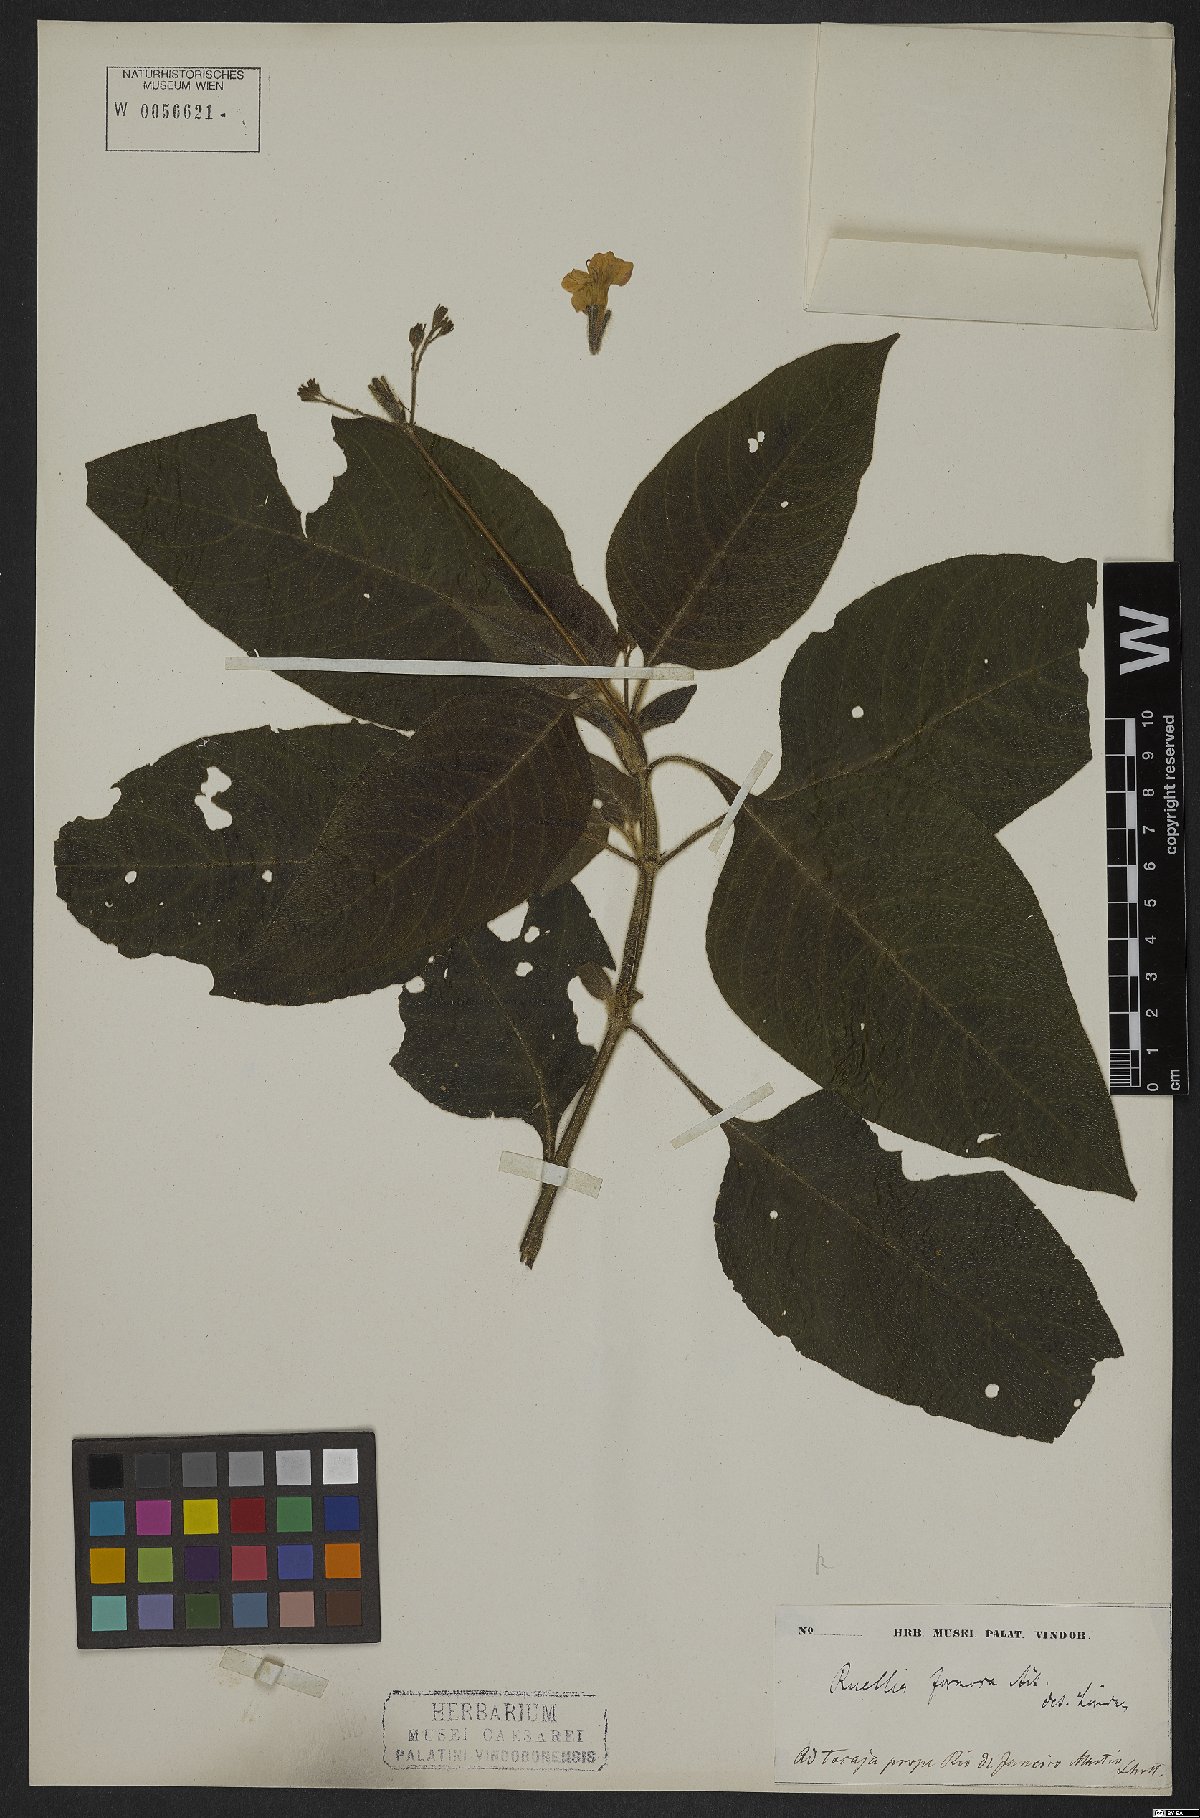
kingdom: Plantae
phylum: Tracheophyta
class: Magnoliopsida
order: Lamiales
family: Acanthaceae
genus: Aphelandra
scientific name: Aphelandra formosa
